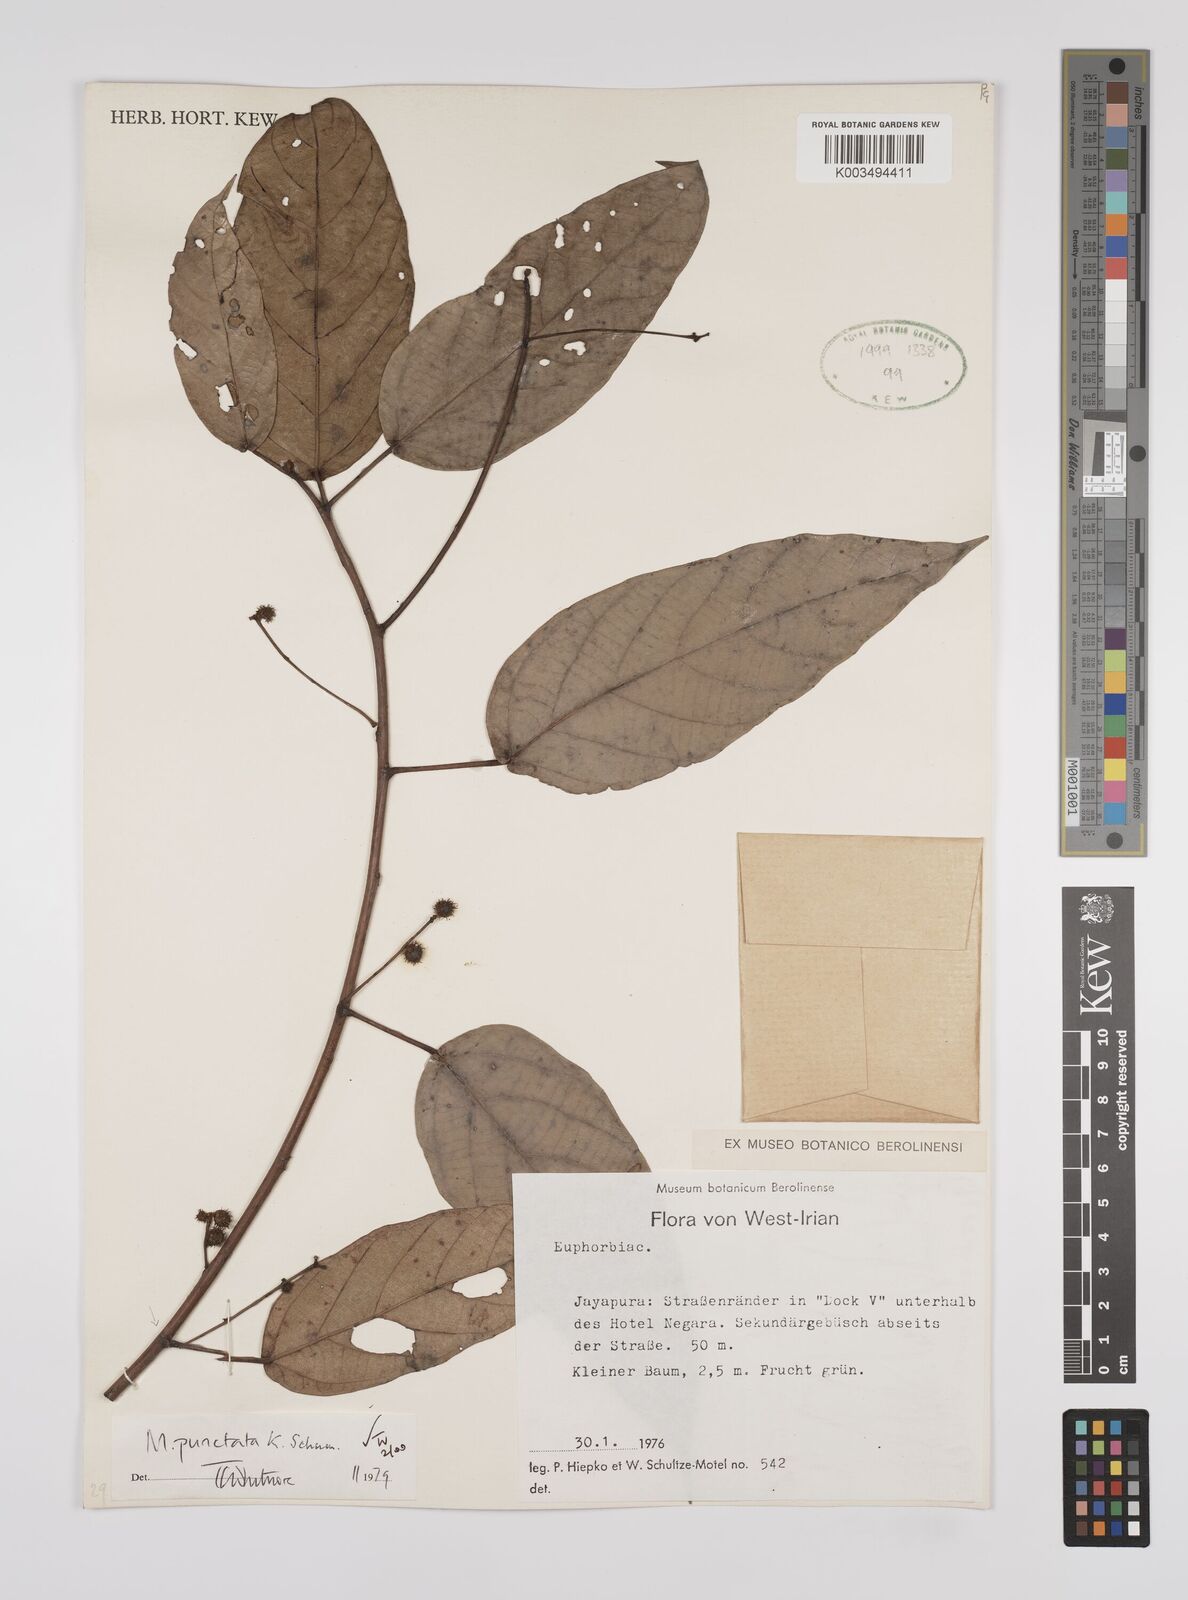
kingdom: Plantae
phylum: Tracheophyta
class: Magnoliopsida
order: Malpighiales
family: Euphorbiaceae
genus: Macaranga
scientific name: Macaranga punctata
